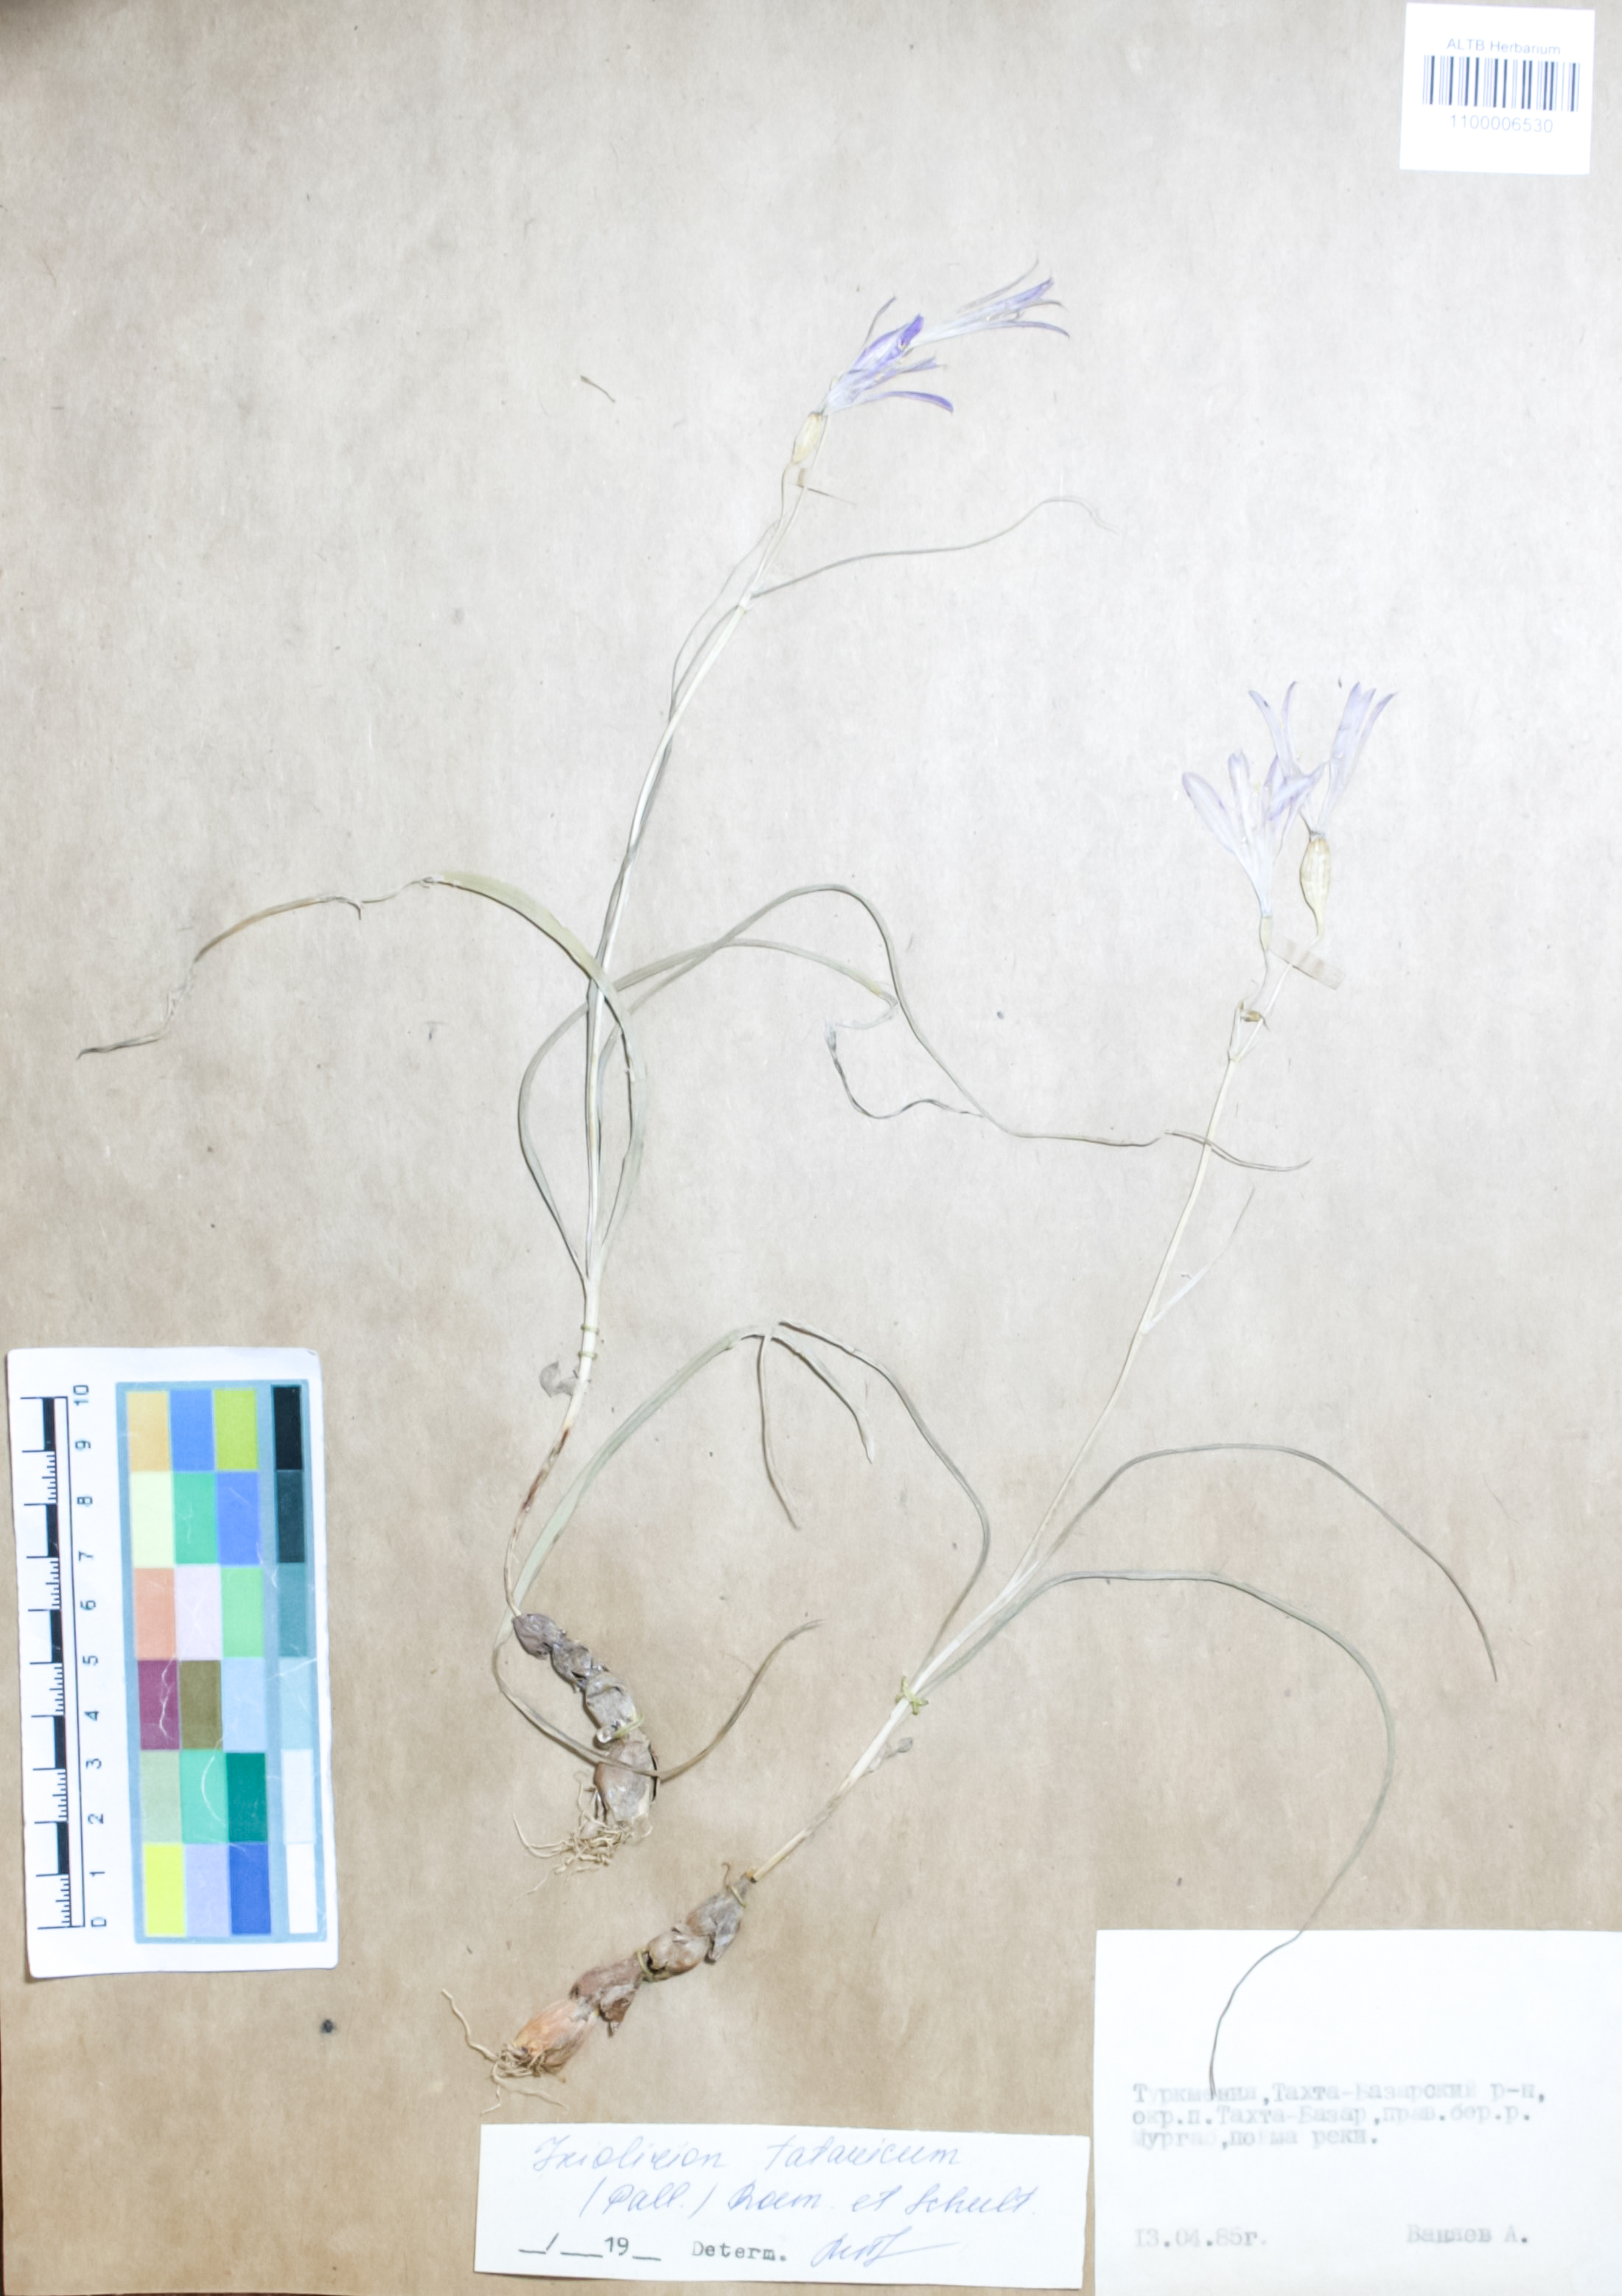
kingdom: Plantae
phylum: Tracheophyta
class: Liliopsida
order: Asparagales
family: Ixioliriaceae
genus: Ixiolirion
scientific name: Ixiolirion tataricum
